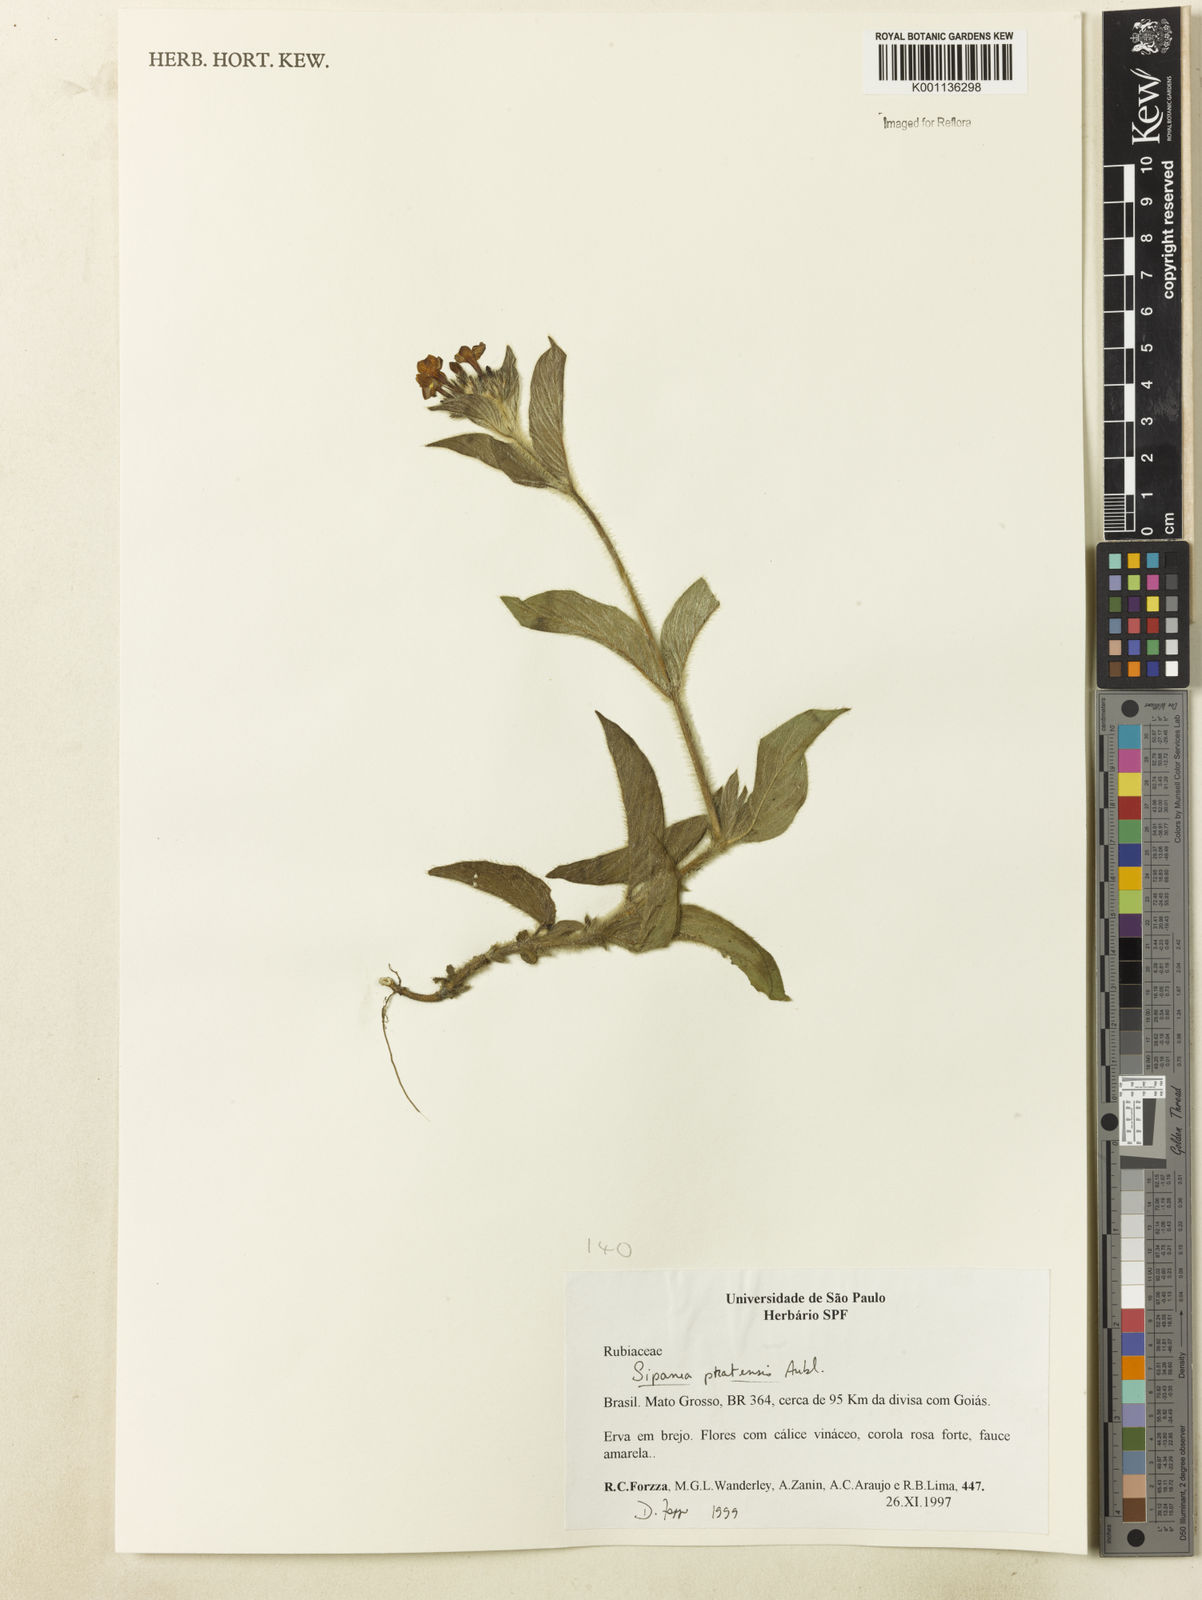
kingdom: Plantae
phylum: Tracheophyta
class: Magnoliopsida
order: Gentianales
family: Rubiaceae
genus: Sipanea
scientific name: Sipanea pratensis
